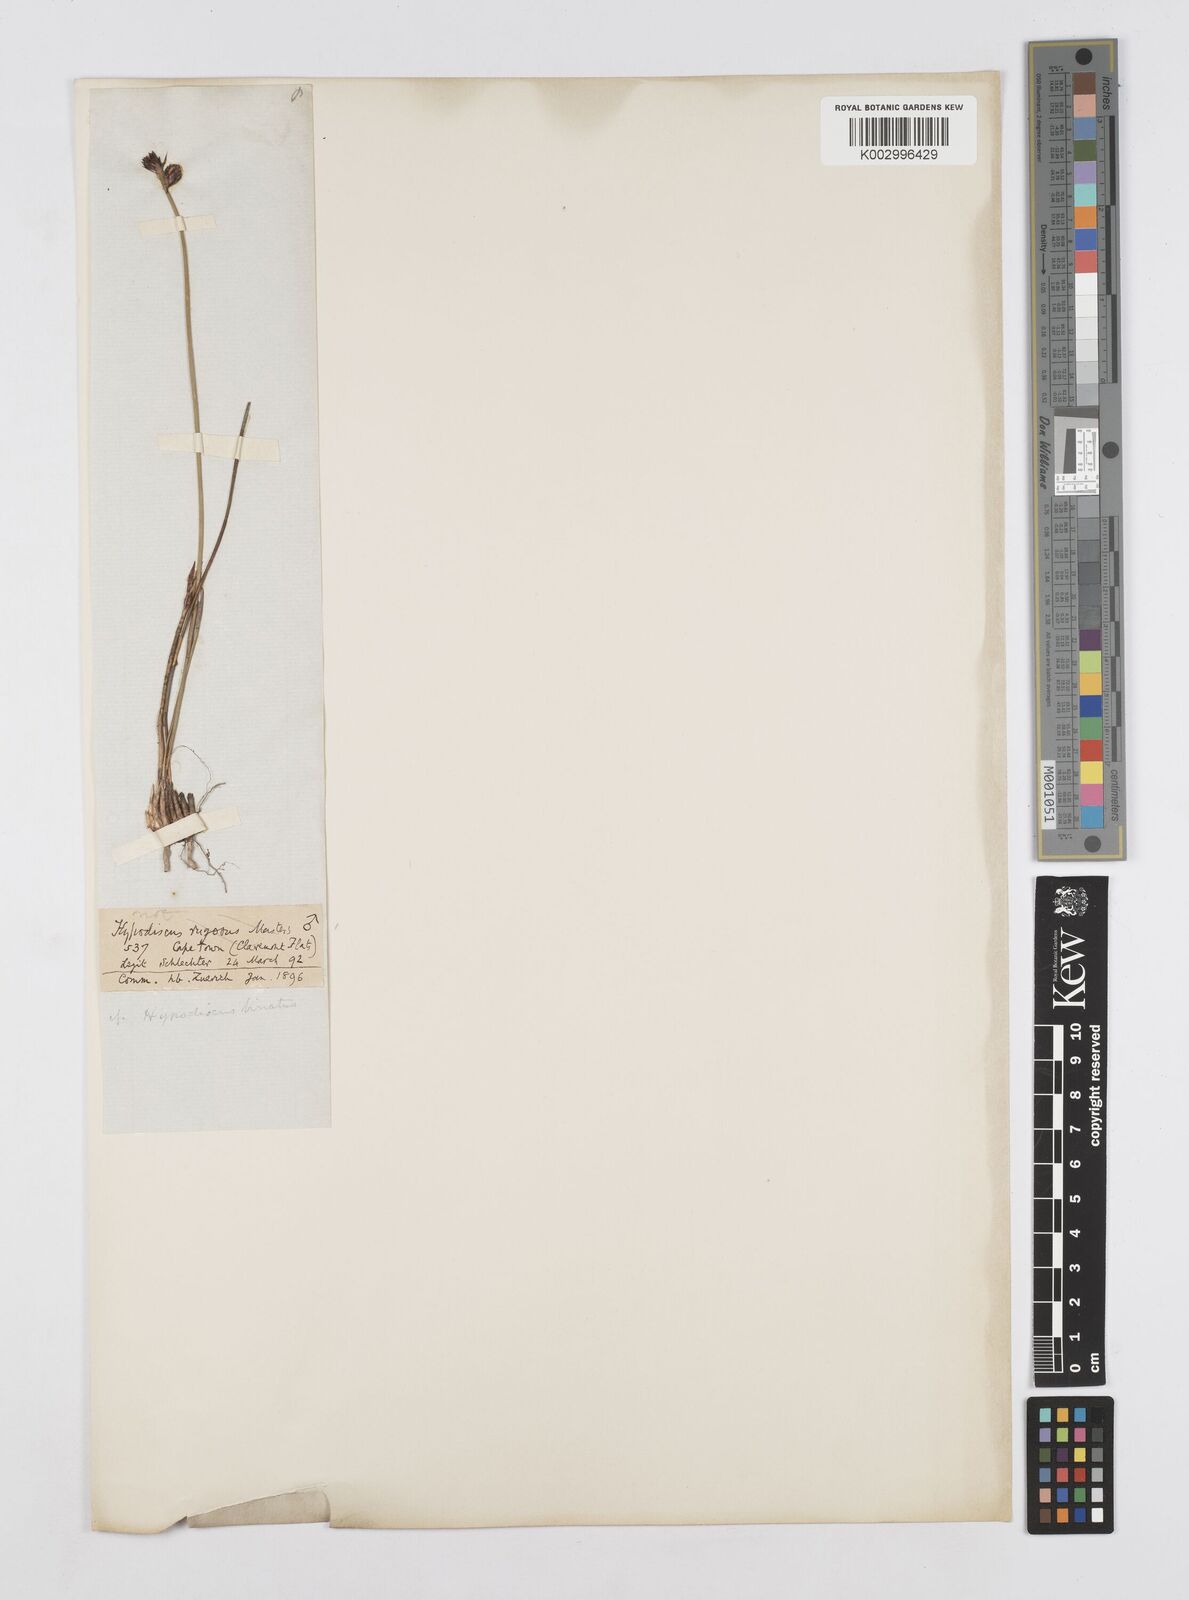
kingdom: Plantae
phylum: Tracheophyta
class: Liliopsida
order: Poales
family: Restionaceae
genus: Hypodiscus
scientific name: Hypodiscus laevigatus
